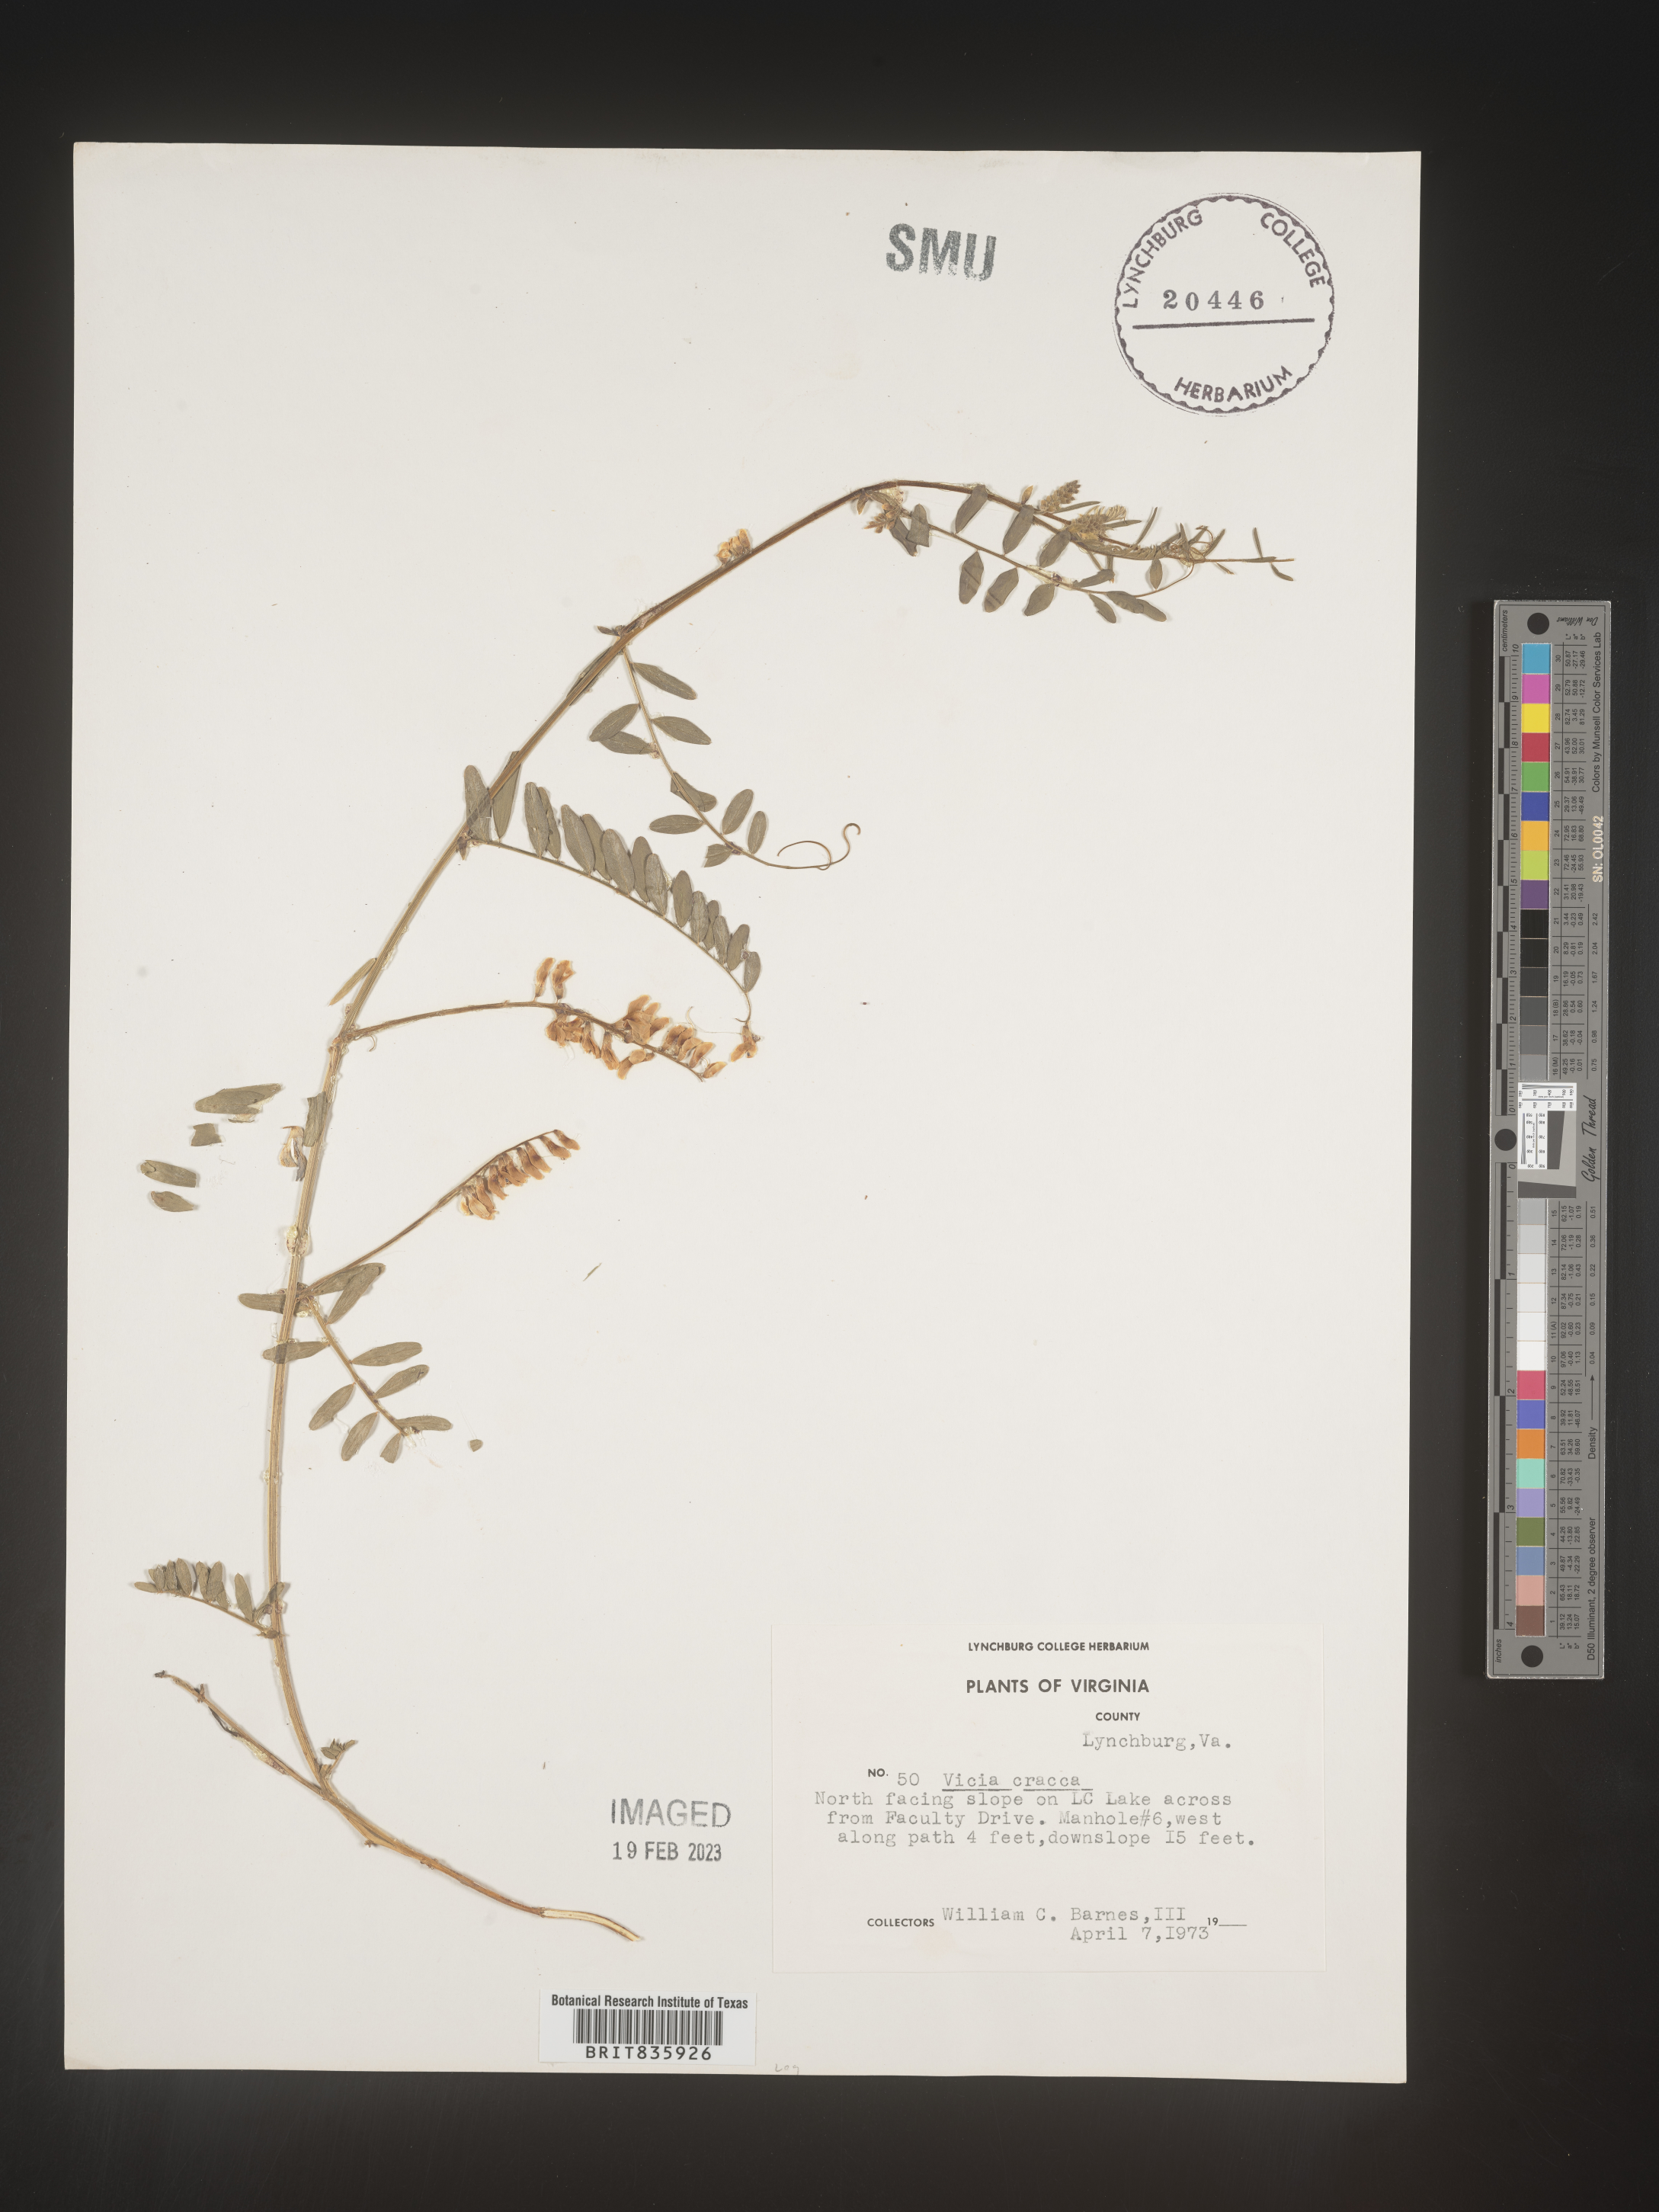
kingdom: Plantae
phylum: Tracheophyta
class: Magnoliopsida
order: Fabales
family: Fabaceae
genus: Vicia
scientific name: Vicia cracca
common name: Bird vetch
